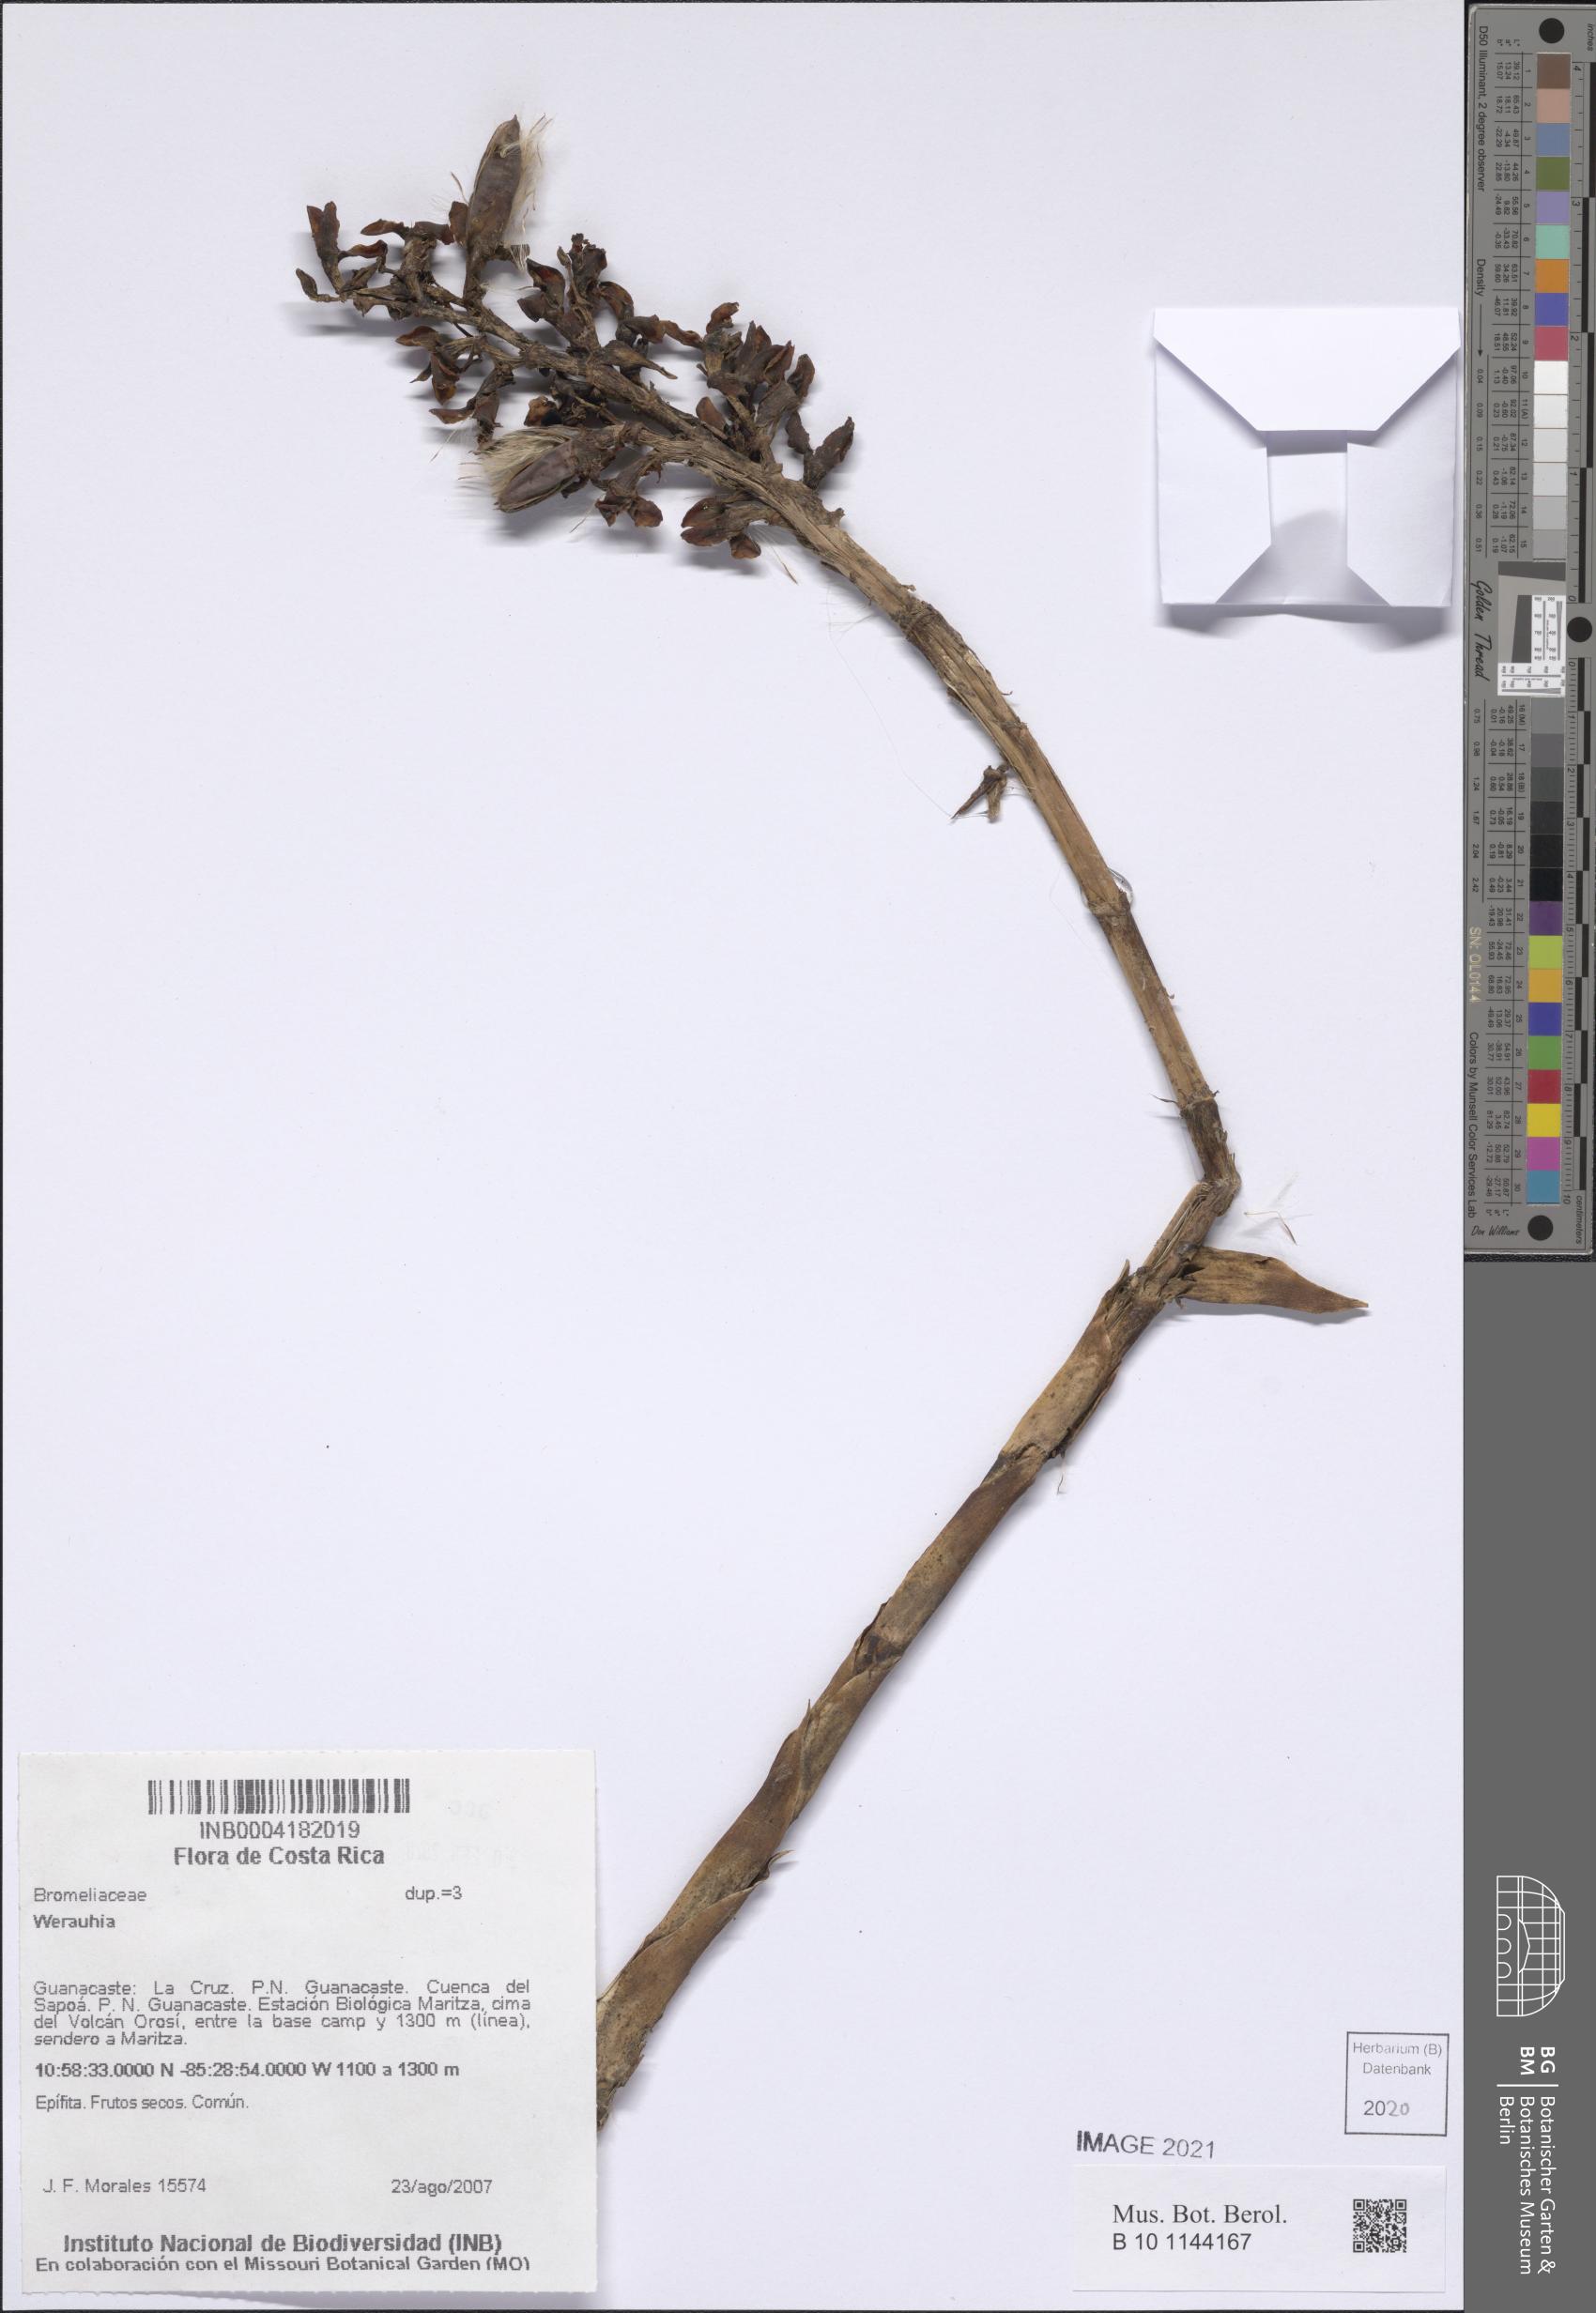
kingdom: Plantae
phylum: Tracheophyta
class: Liliopsida
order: Poales
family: Bromeliaceae
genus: Werauhia
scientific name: Werauhia
